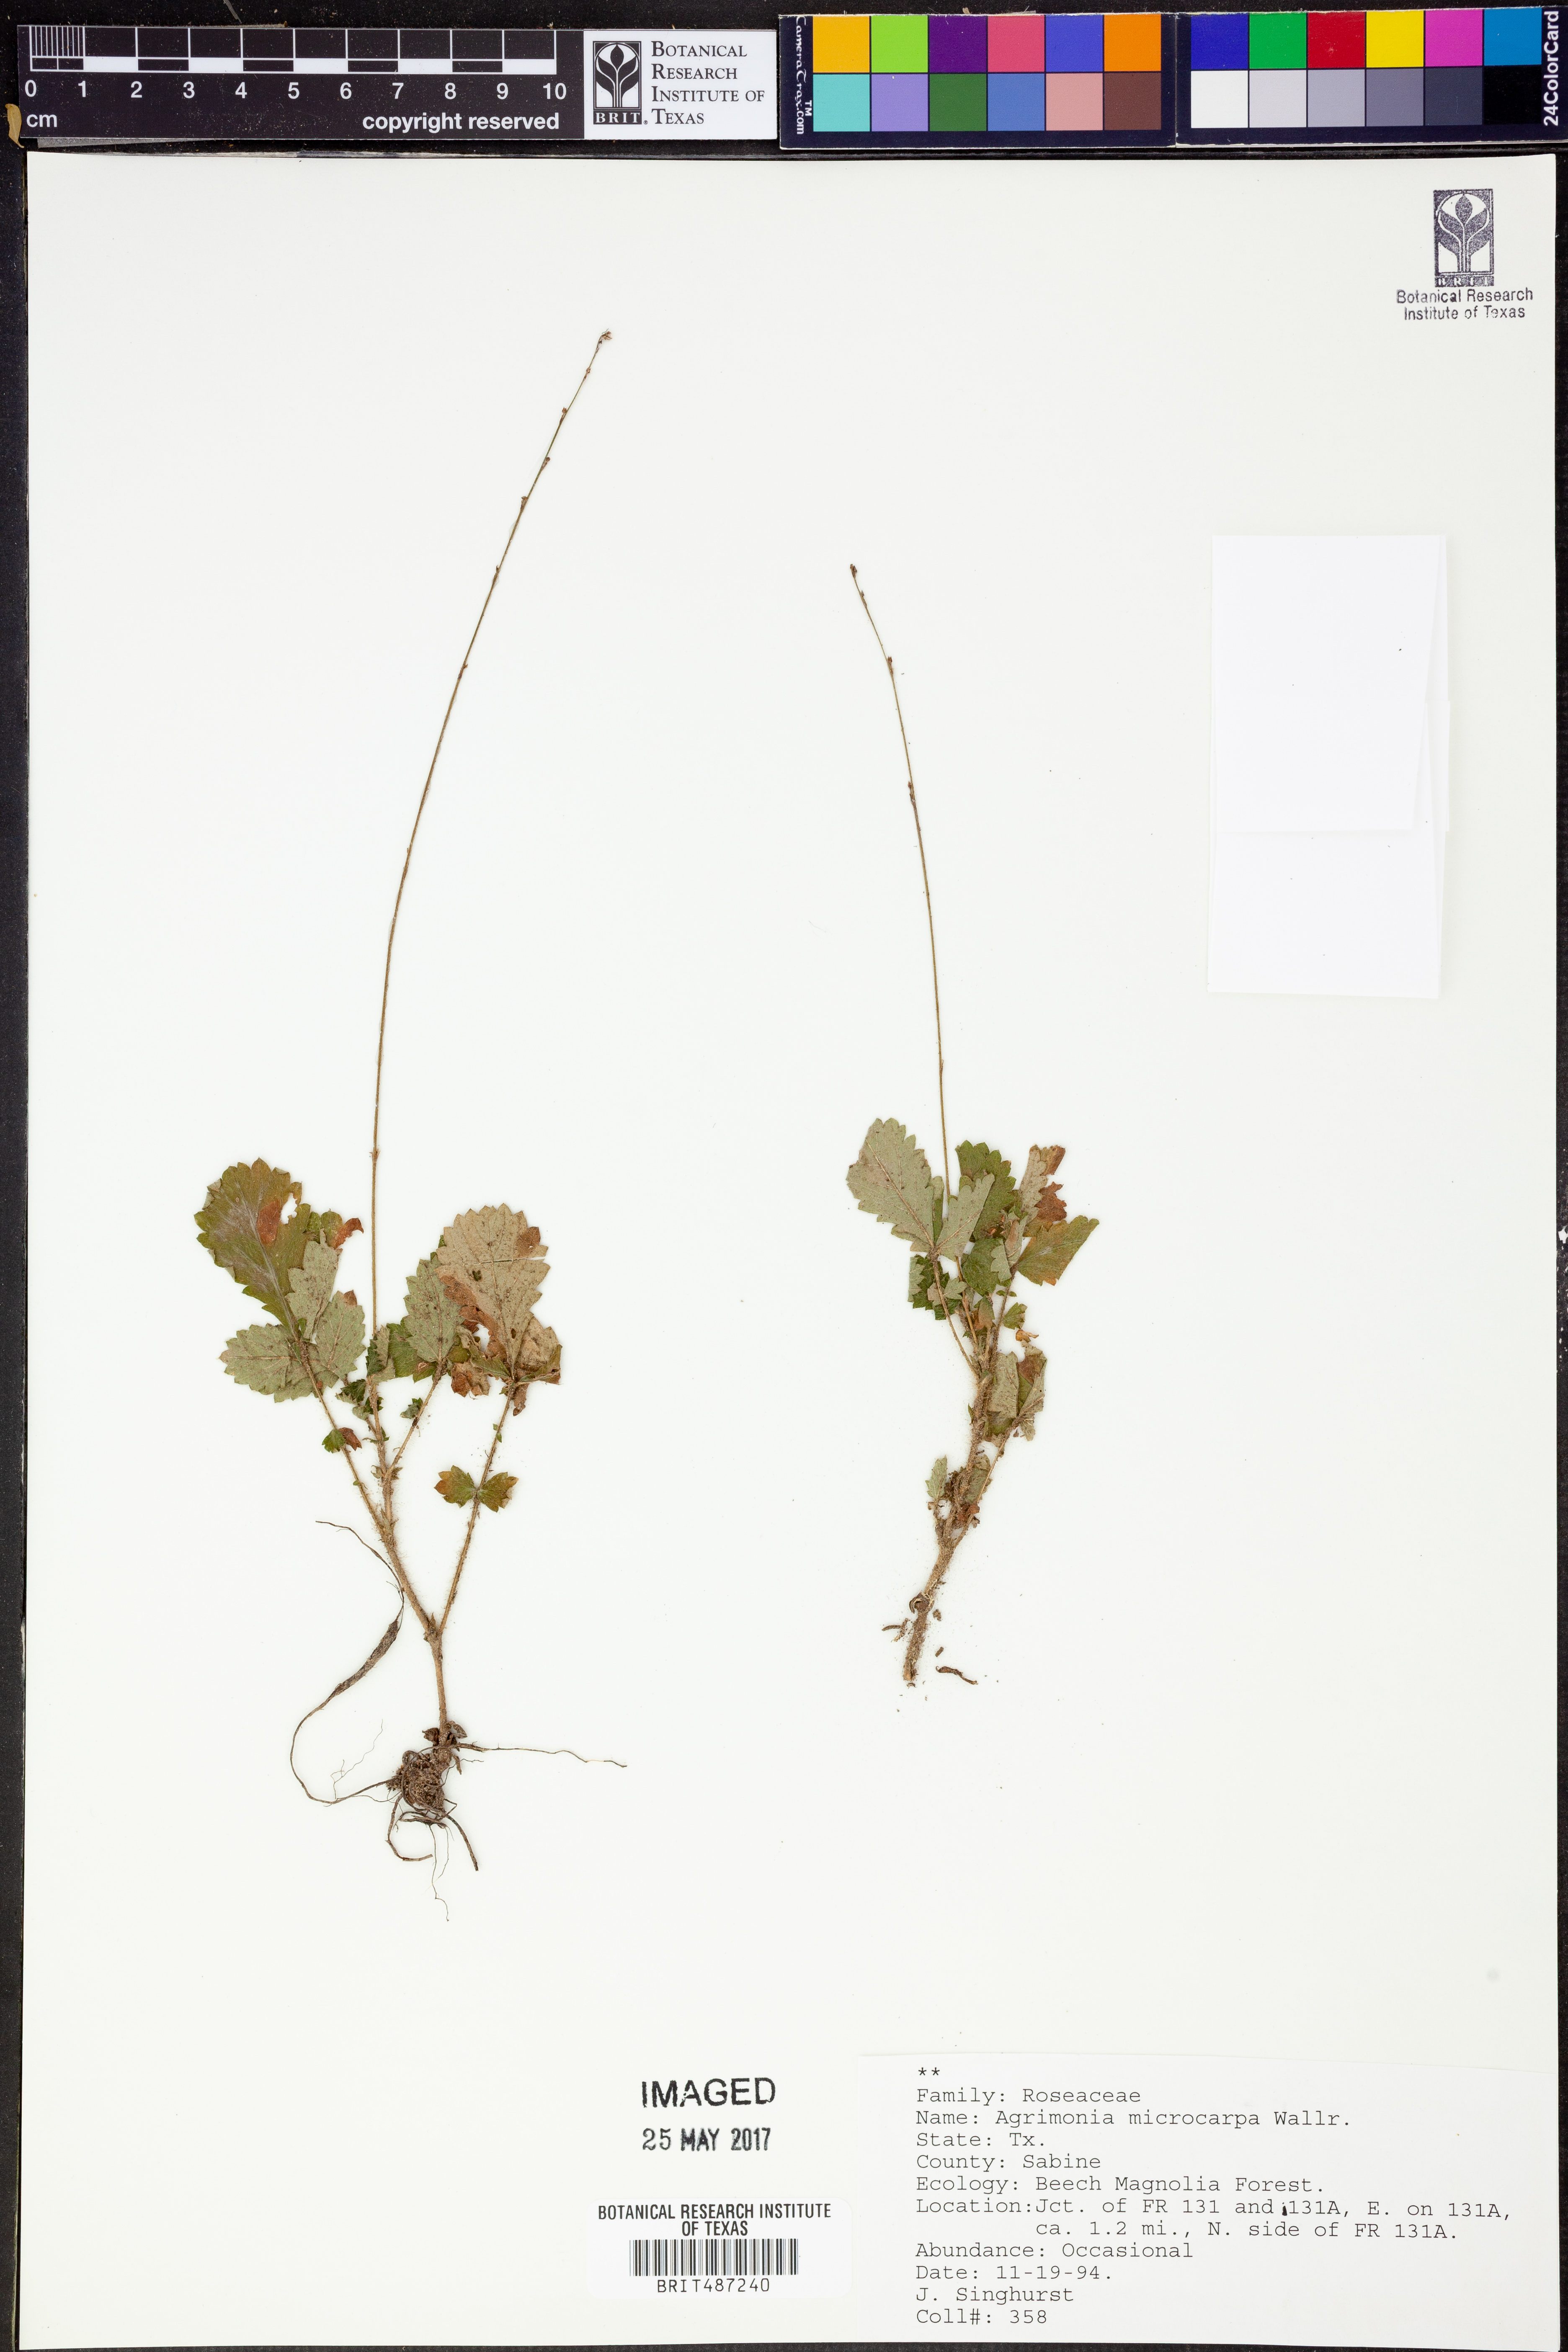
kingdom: Plantae
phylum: Tracheophyta
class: Magnoliopsida
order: Rosales
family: Rosaceae
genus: Agrimonia
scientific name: Agrimonia microcarpa
